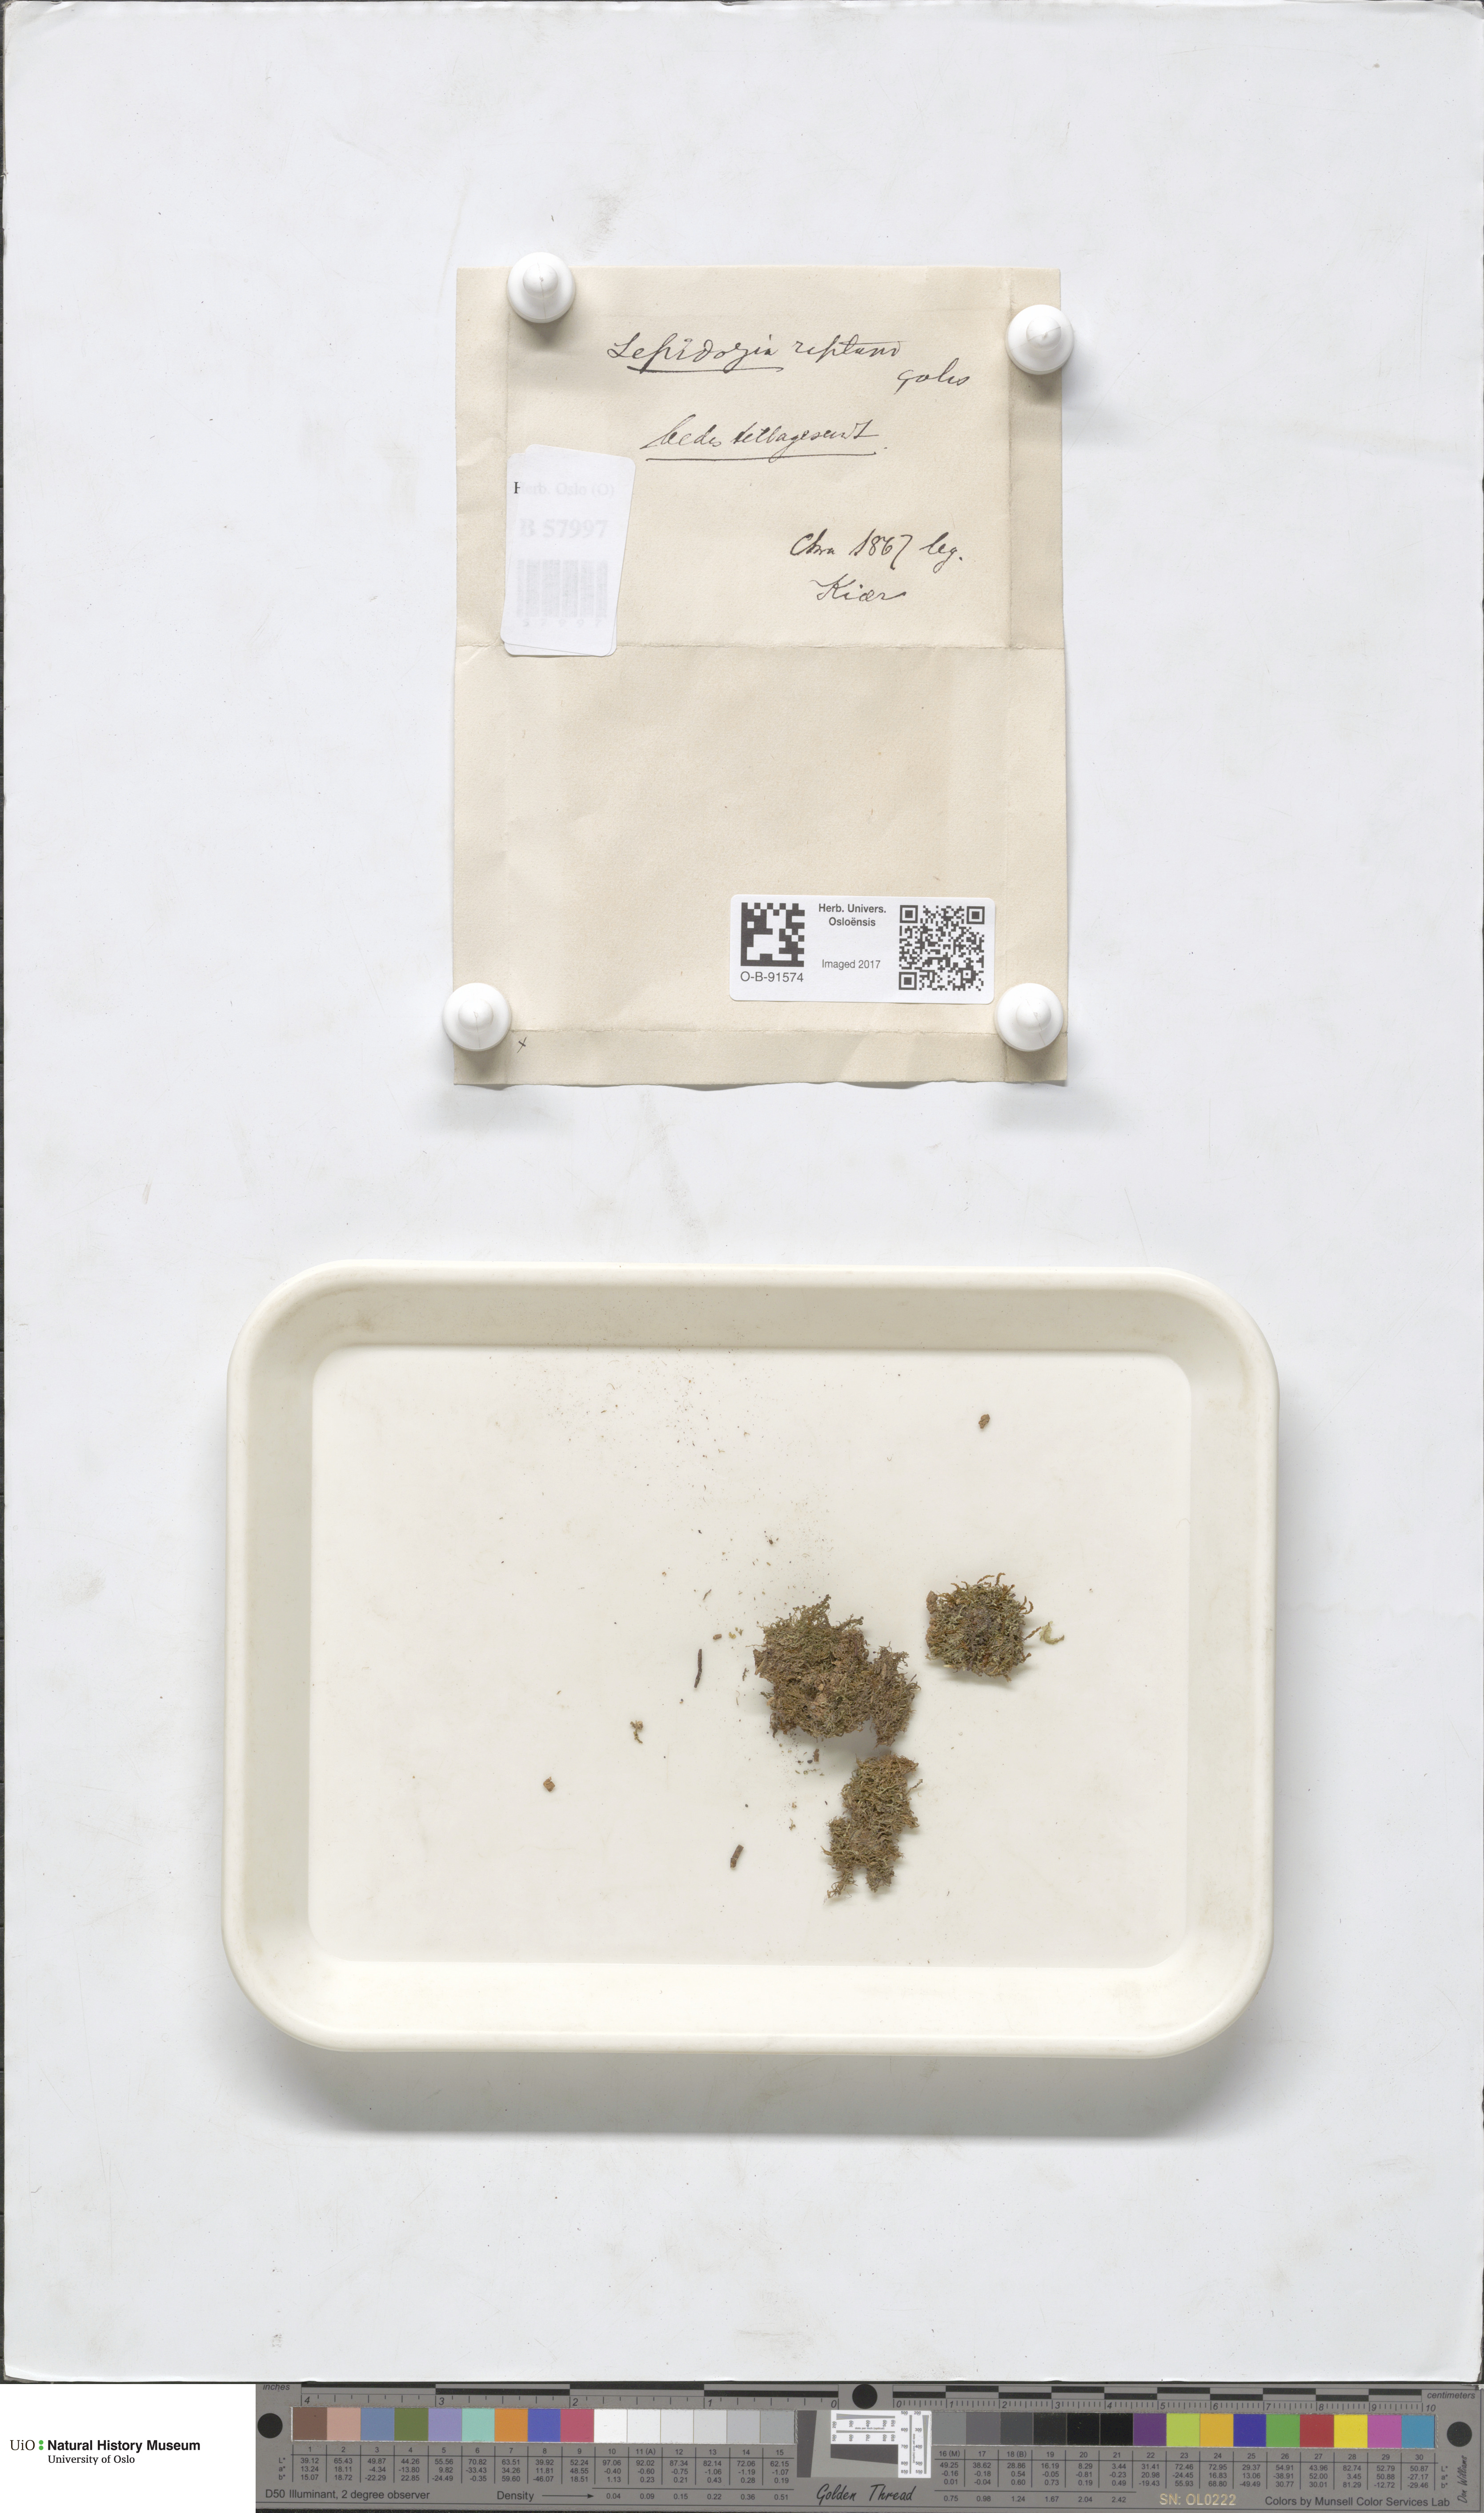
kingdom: Plantae
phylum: Marchantiophyta
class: Jungermanniopsida
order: Jungermanniales
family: Lepidoziaceae
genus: Lepidozia
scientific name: Lepidozia reptans
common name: Creeping fingerwort
